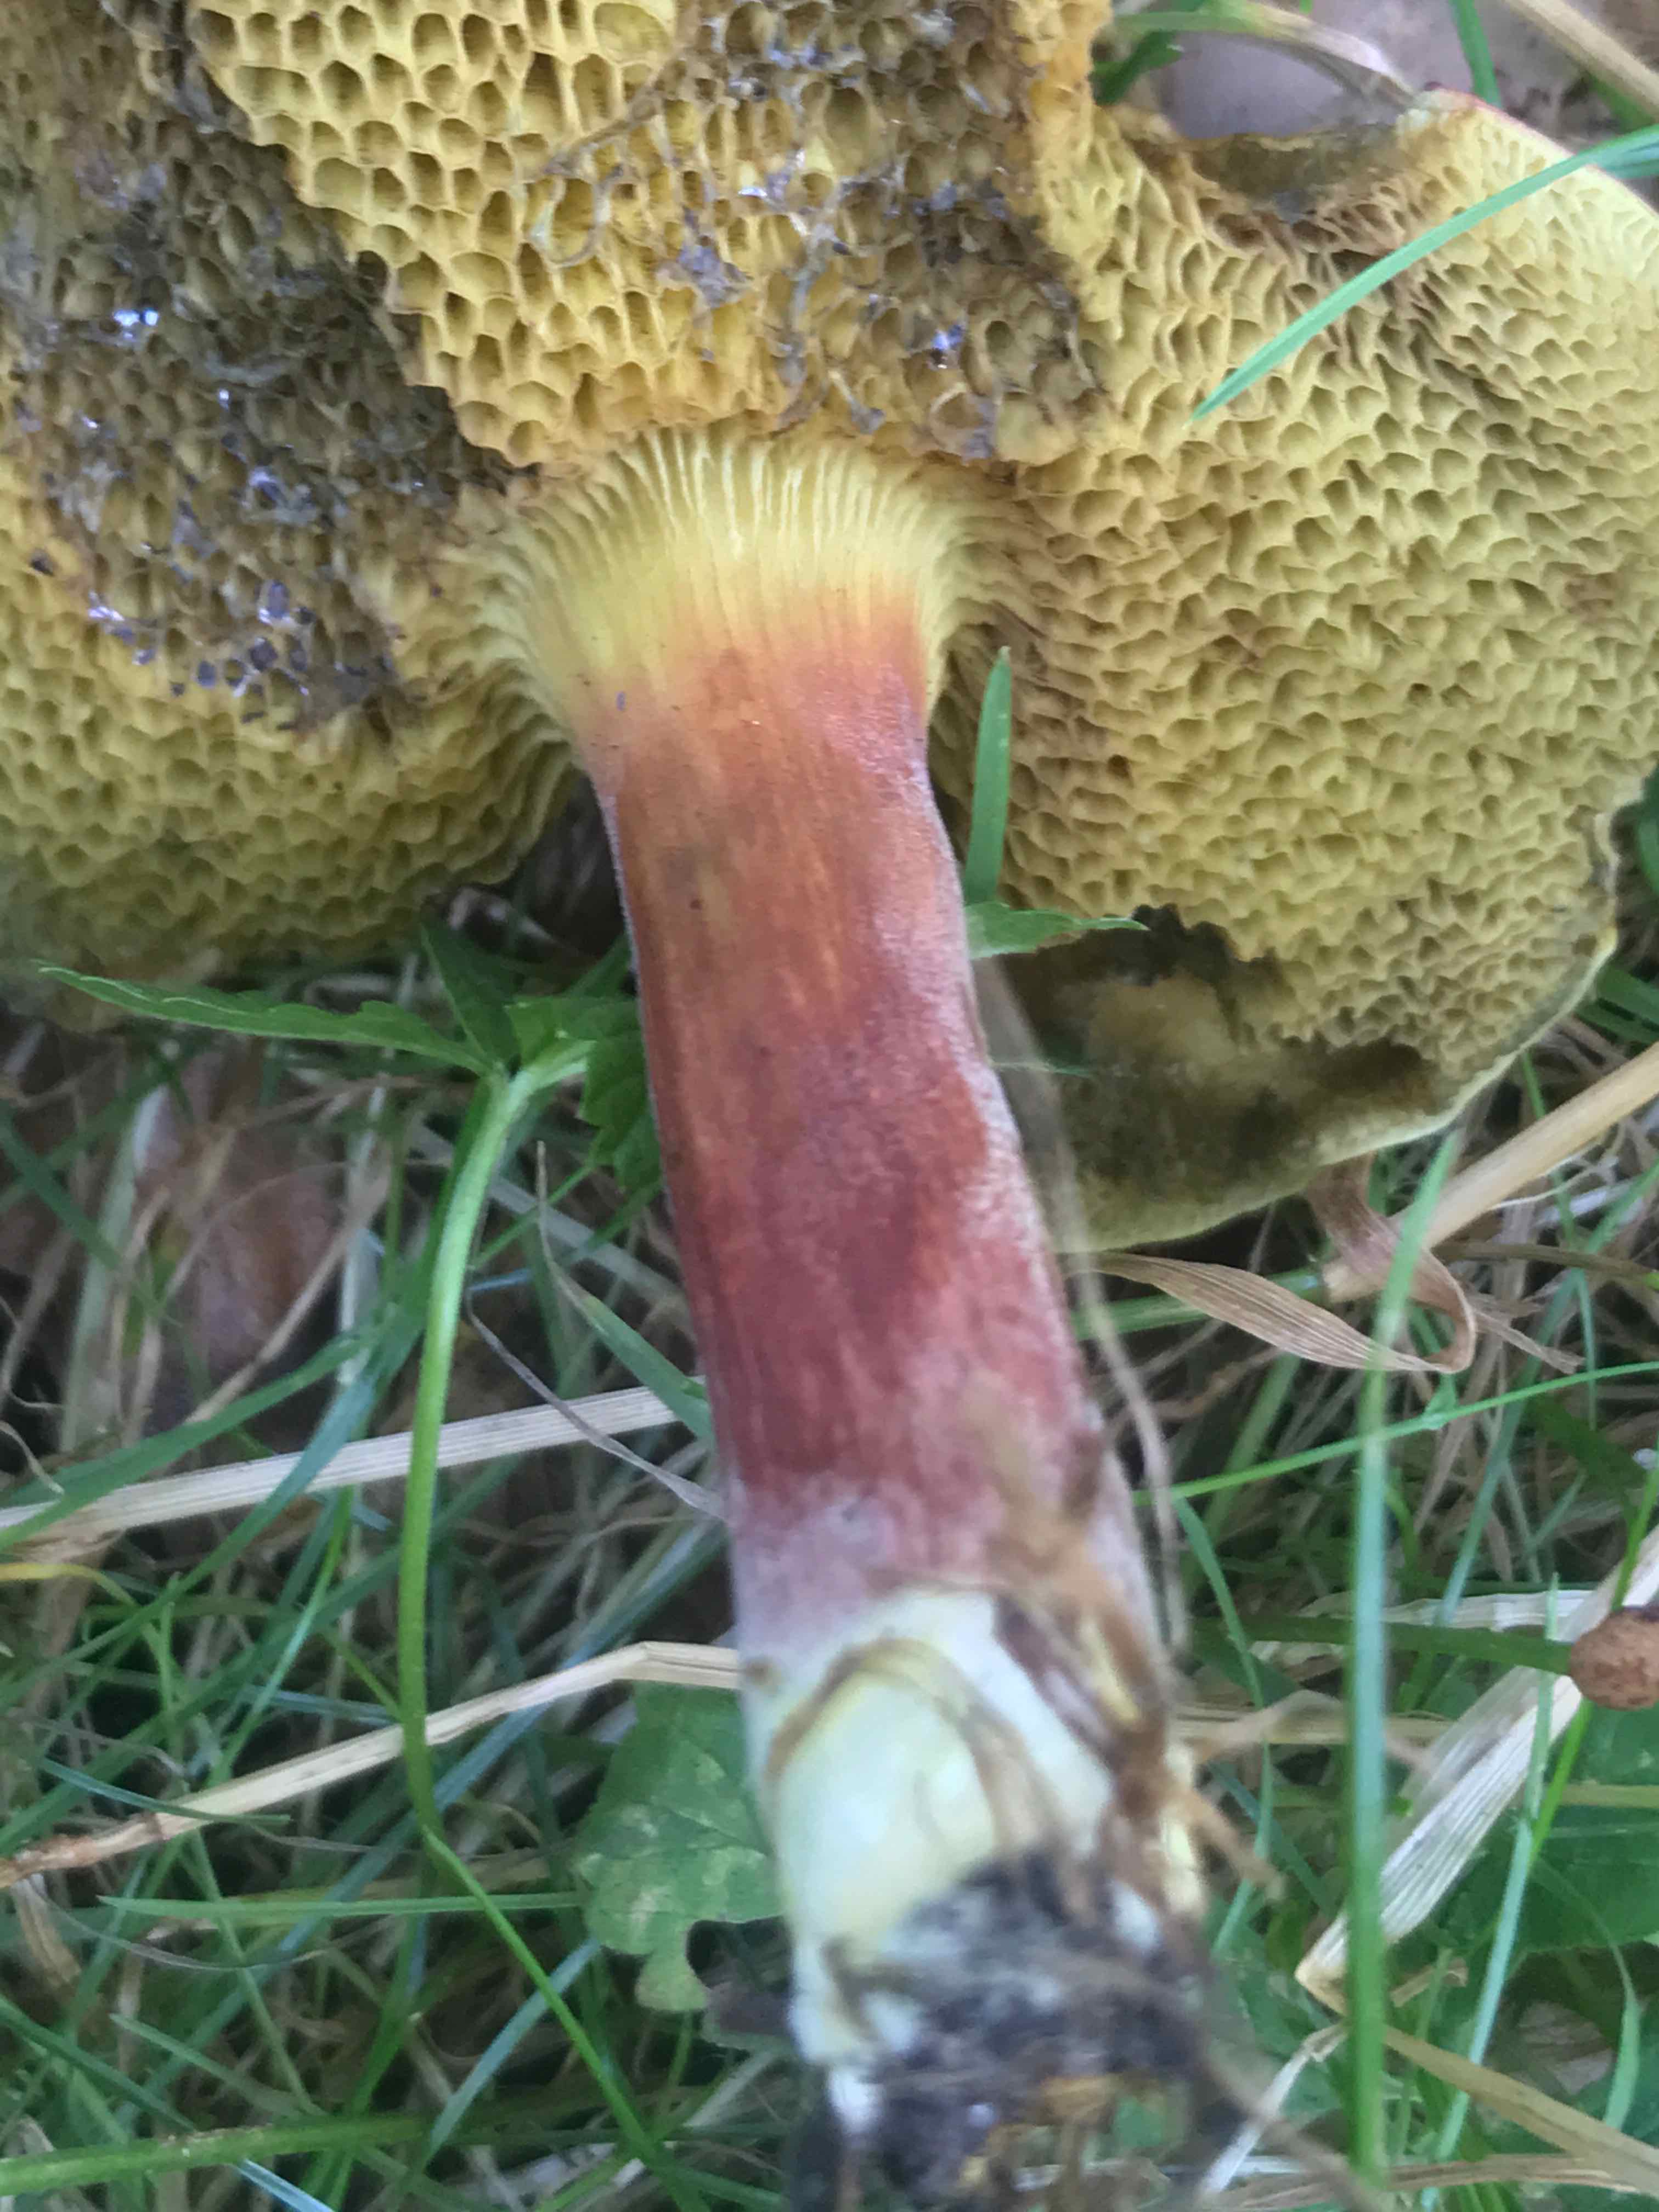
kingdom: Fungi
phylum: Basidiomycota
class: Agaricomycetes
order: Boletales
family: Boletaceae
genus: Hortiboletus
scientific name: Hortiboletus rubellus
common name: blodrød rørhat
